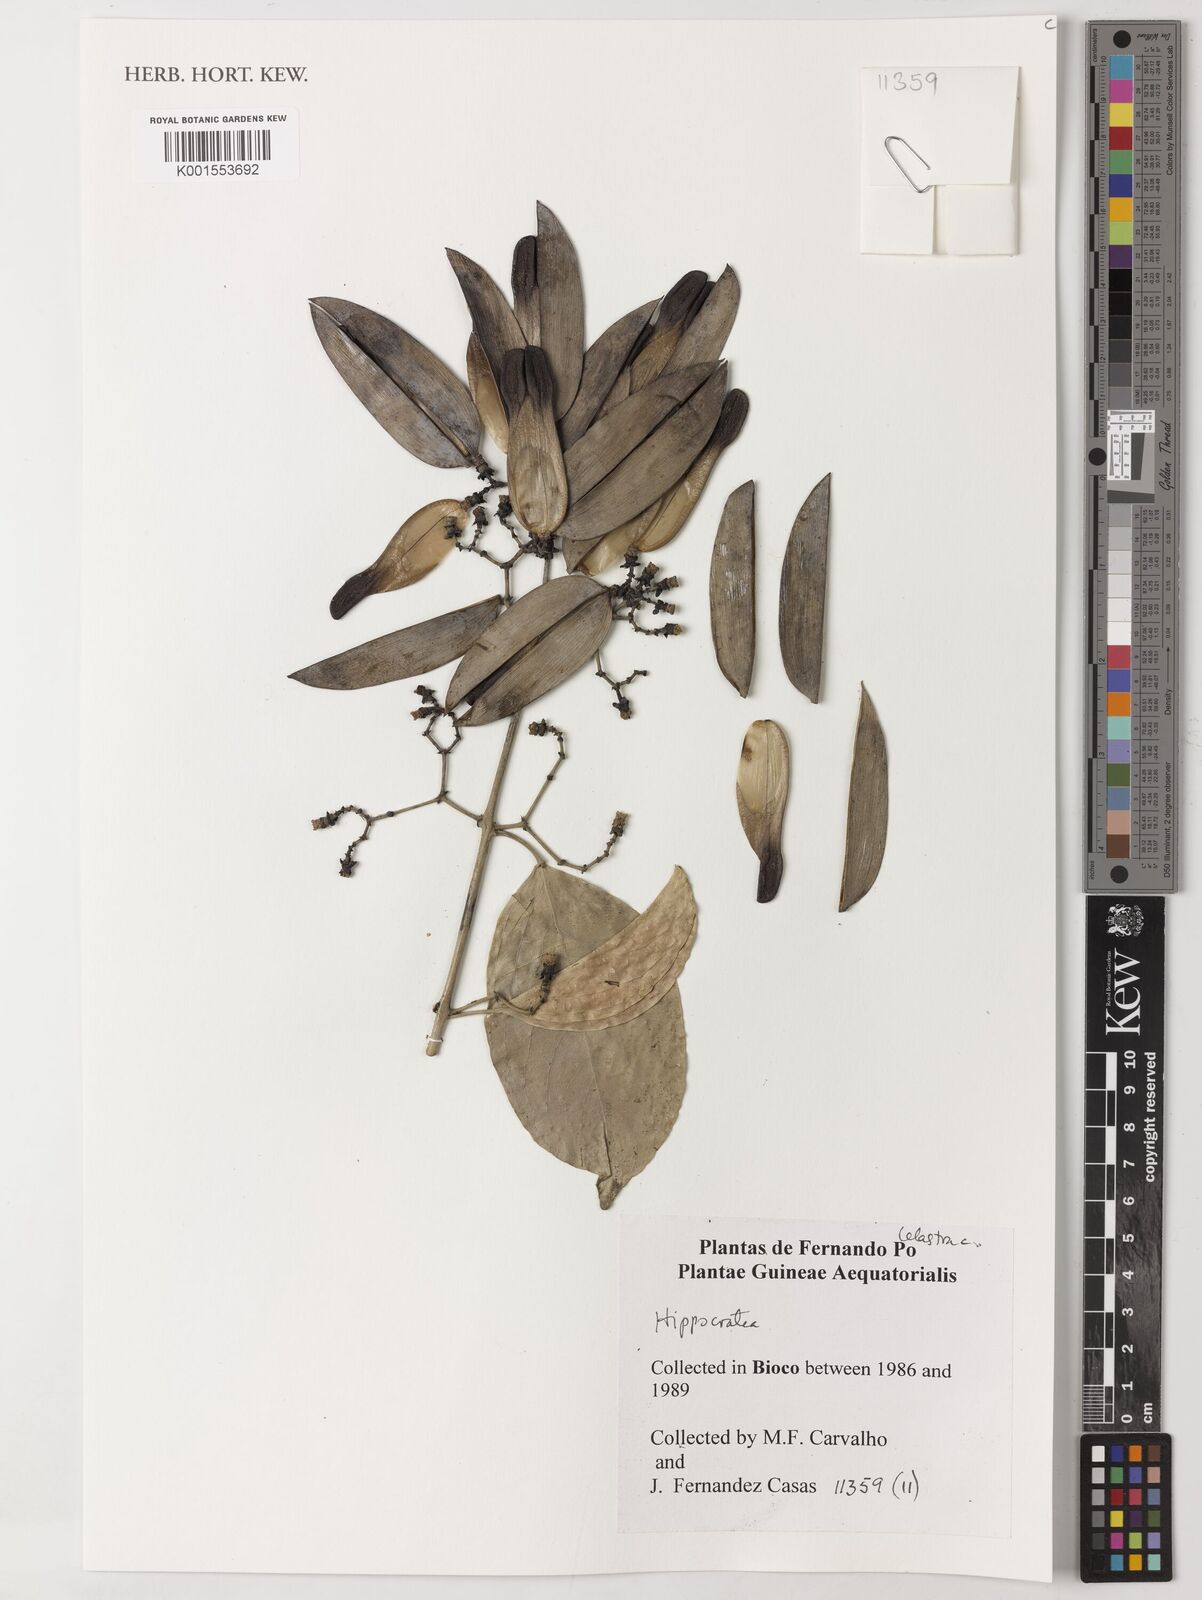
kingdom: Plantae
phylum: Tracheophyta
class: Magnoliopsida
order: Celastrales
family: Celastraceae
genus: Hippocratea
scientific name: Hippocratea
